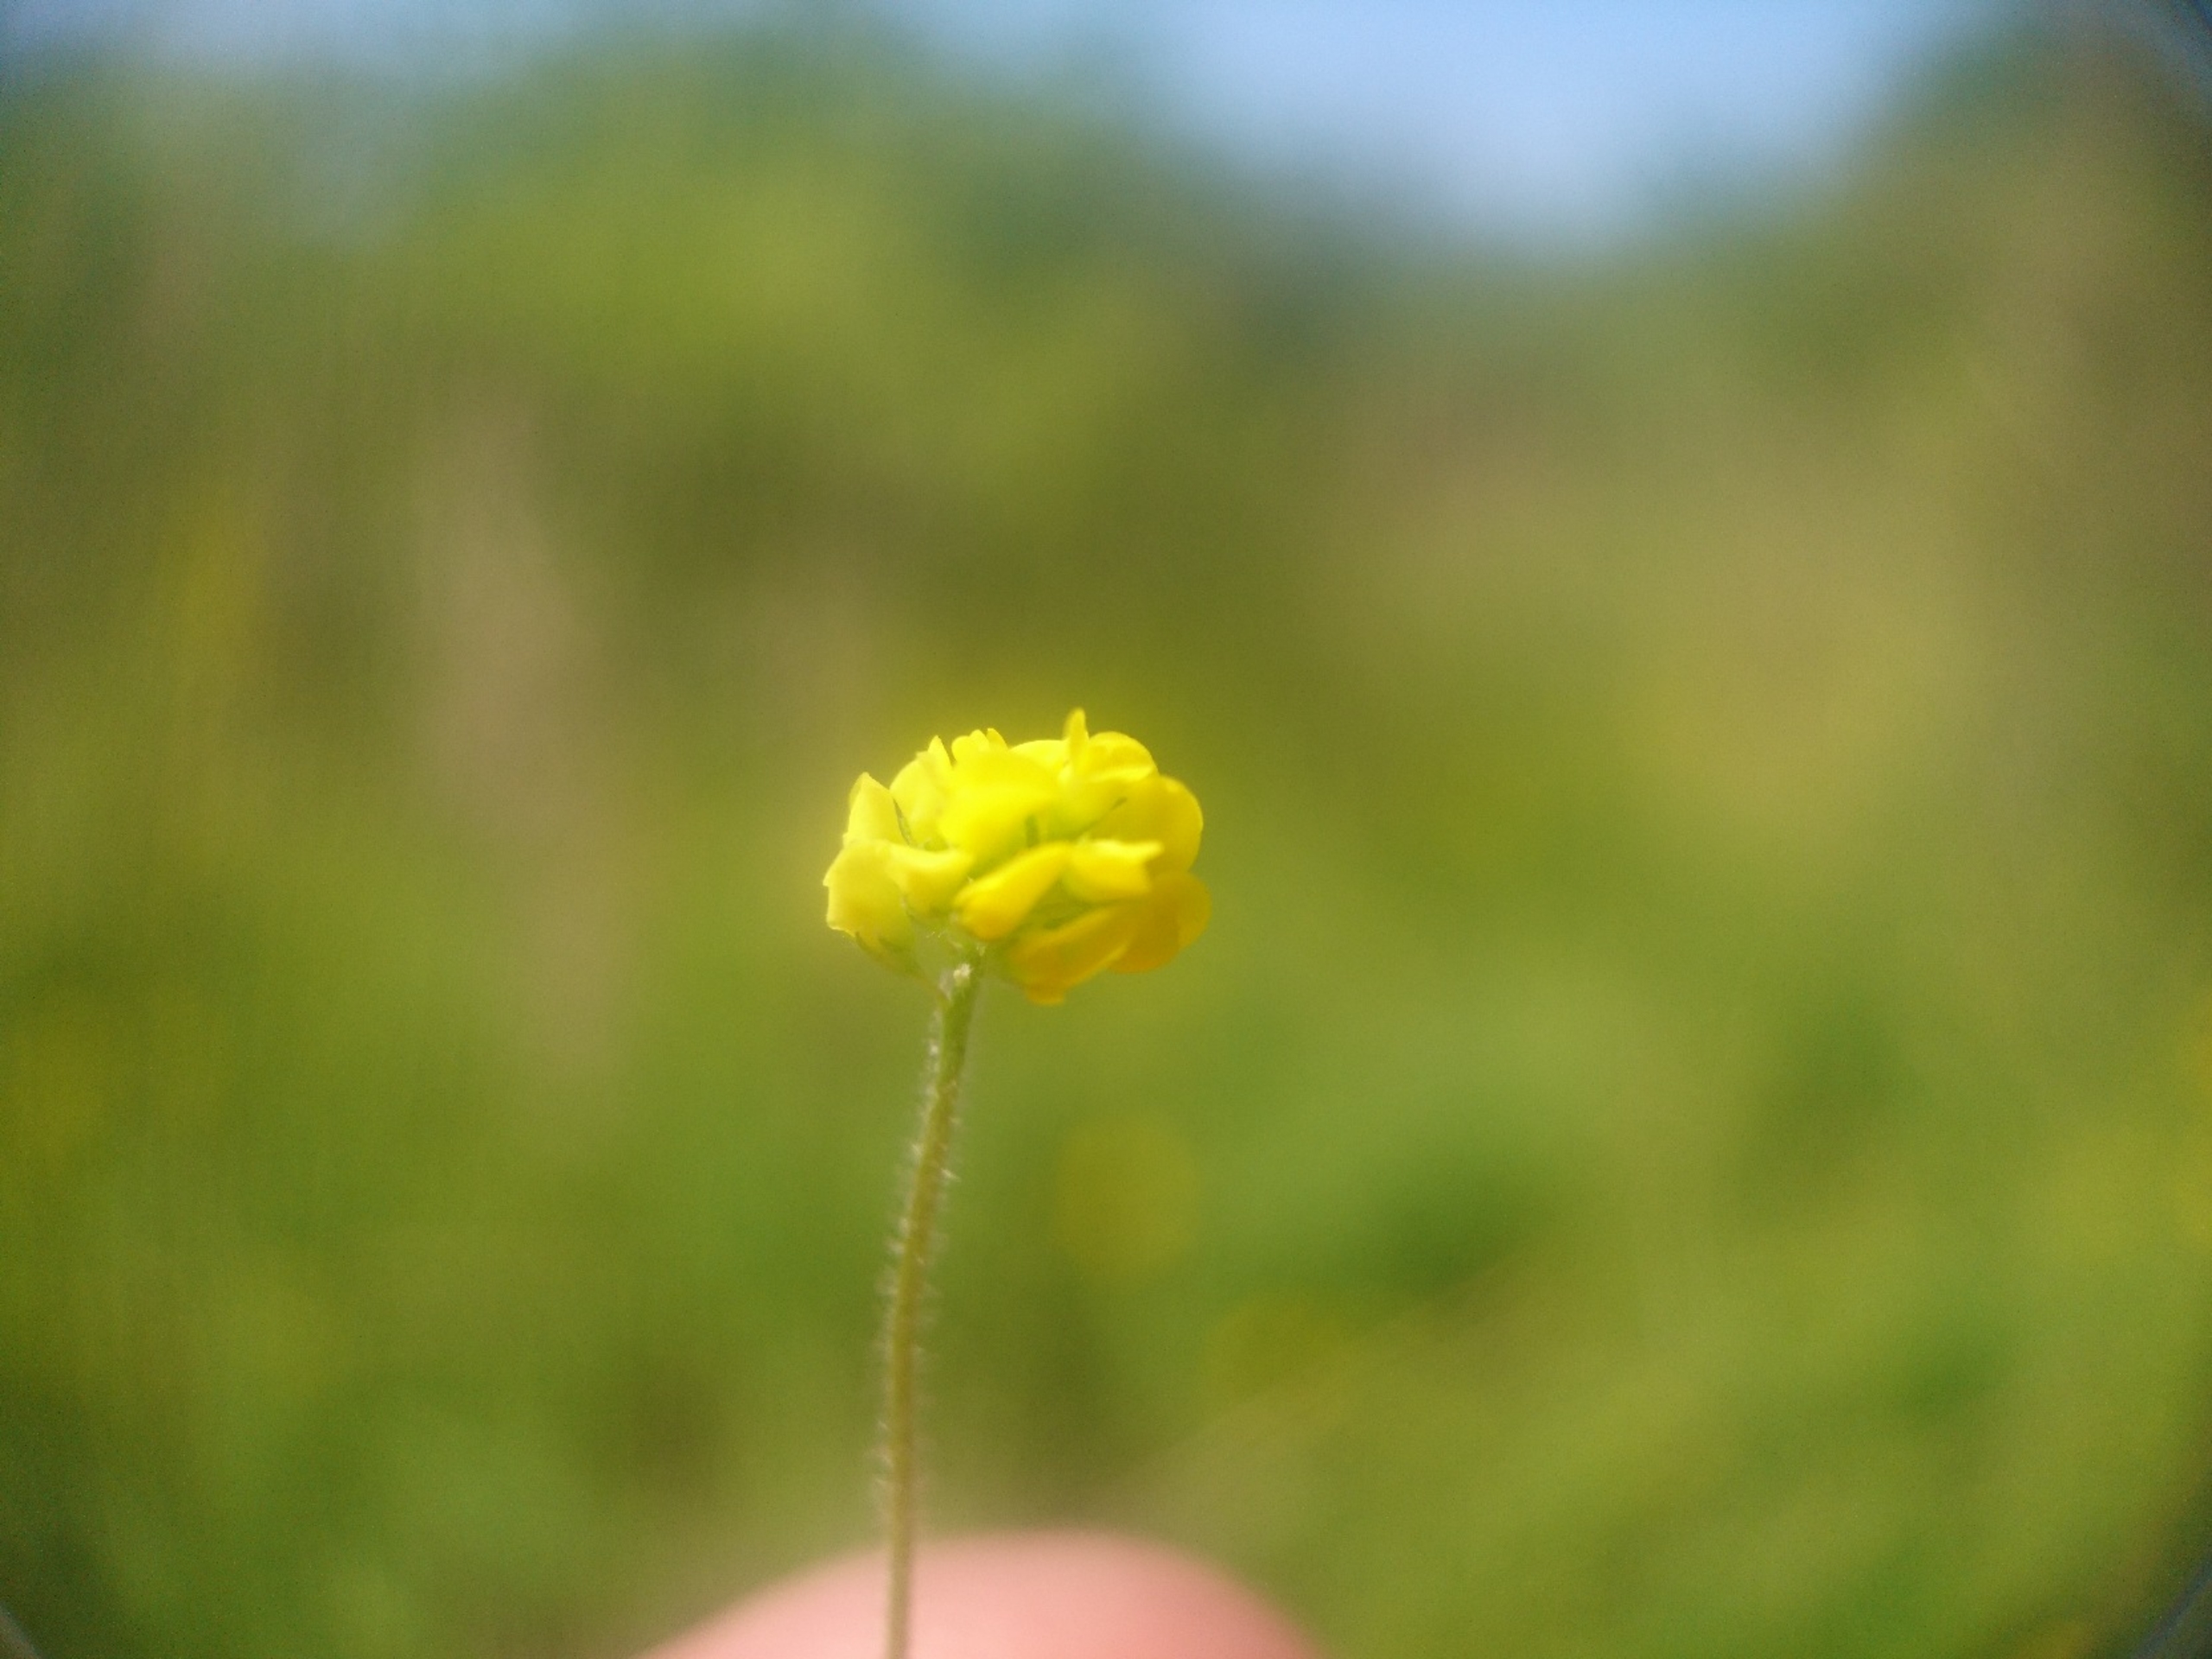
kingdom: Plantae
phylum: Tracheophyta
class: Magnoliopsida
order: Fabales
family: Fabaceae
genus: Medicago
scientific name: Medicago lupulina
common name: Humle-sneglebælg
